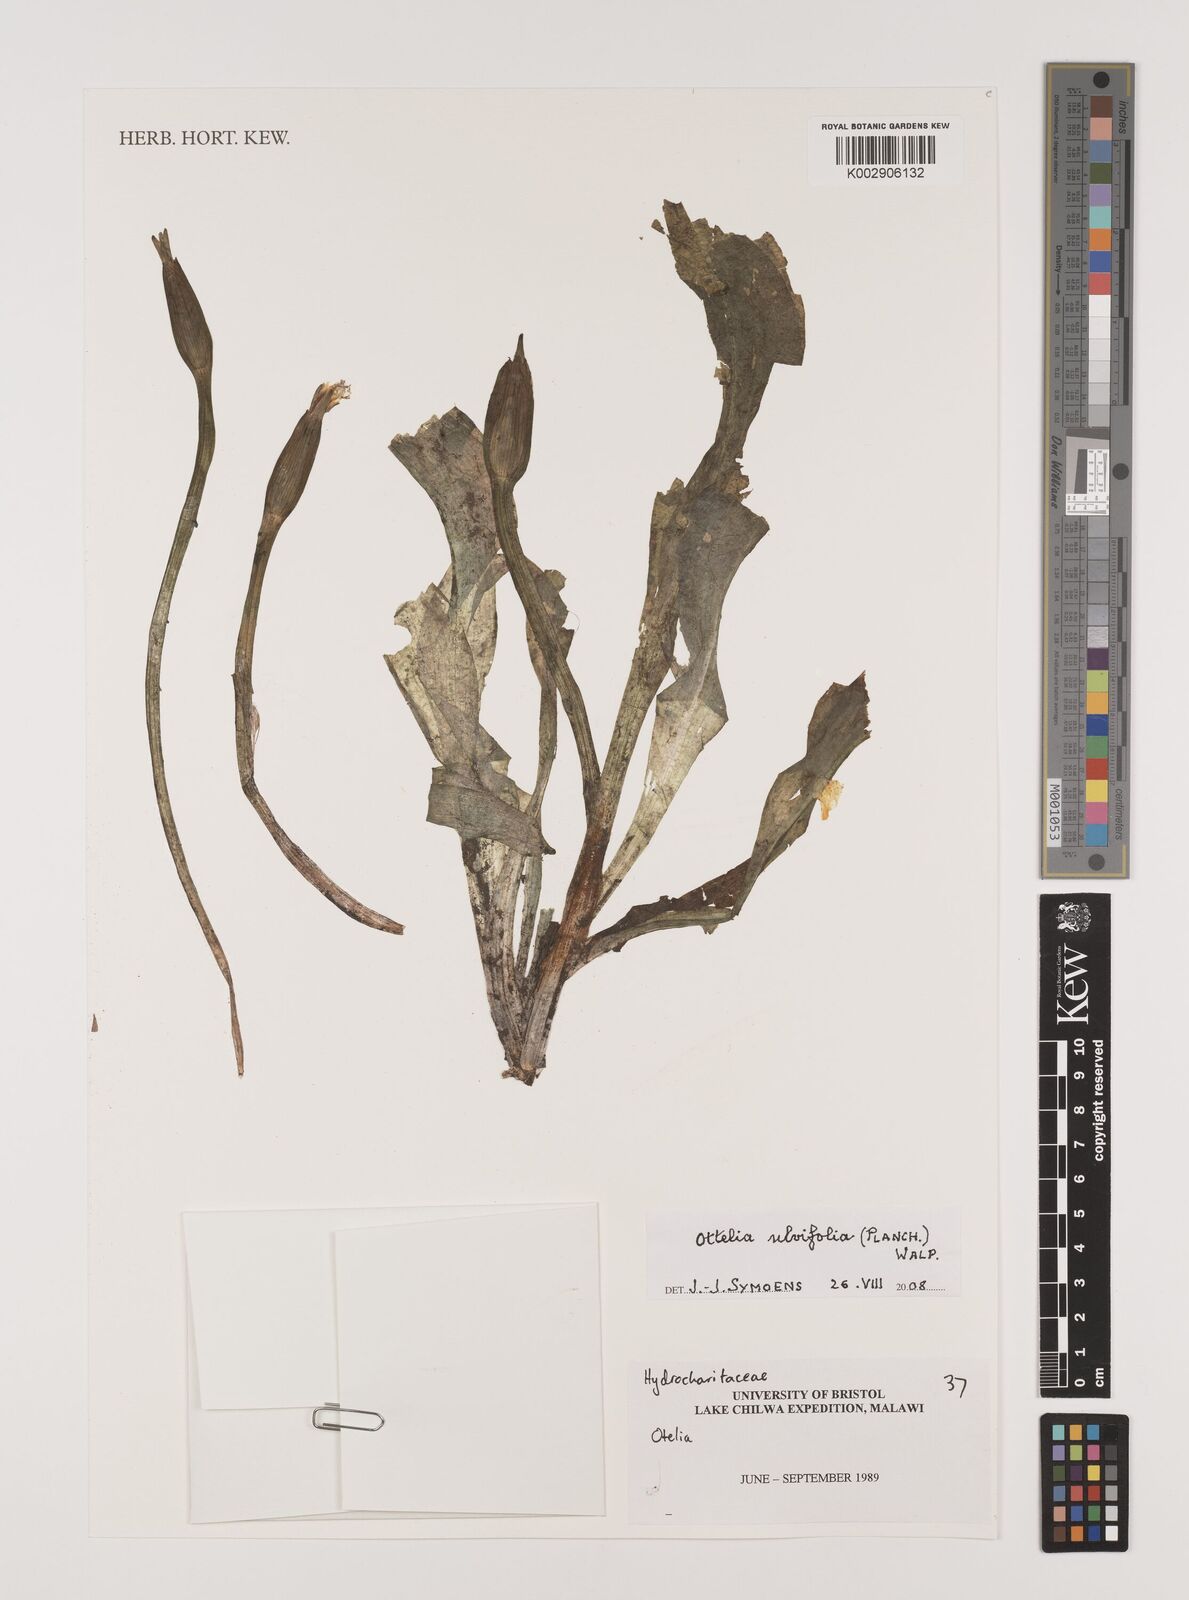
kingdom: Plantae
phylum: Tracheophyta
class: Liliopsida
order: Alismatales
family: Hydrocharitaceae
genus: Ottelia
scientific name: Ottelia ulvifolia
